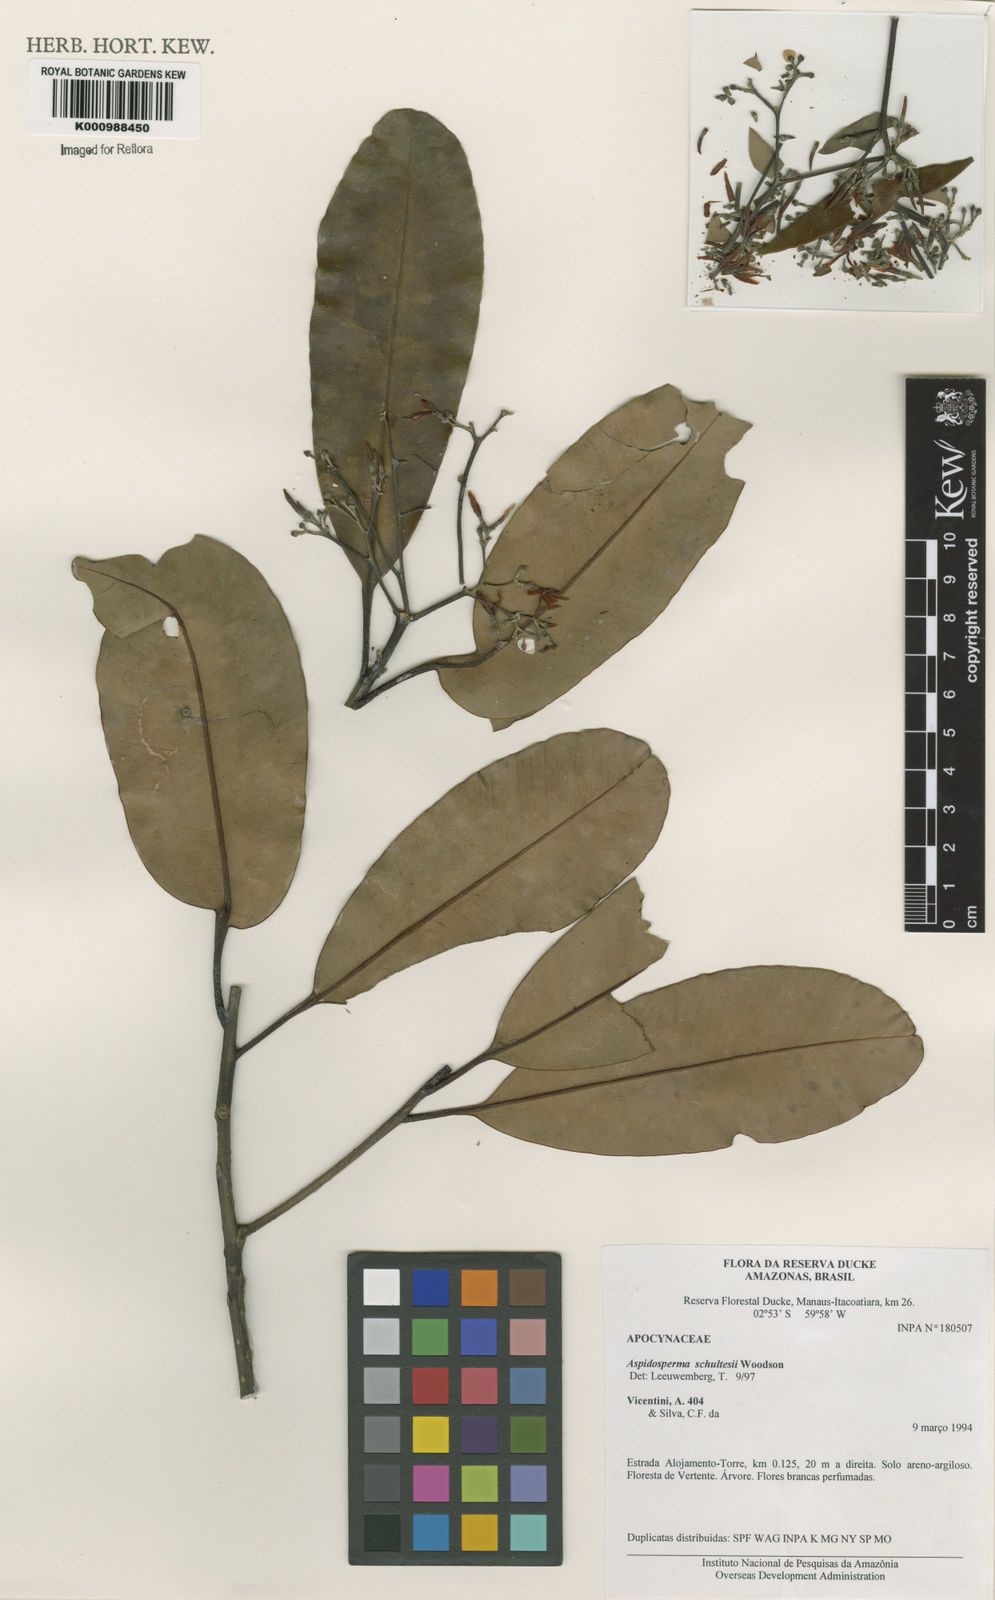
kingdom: Plantae
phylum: Tracheophyta
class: Magnoliopsida
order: Gentianales
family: Apocynaceae
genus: Aspidosperma
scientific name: Aspidosperma schultesii
